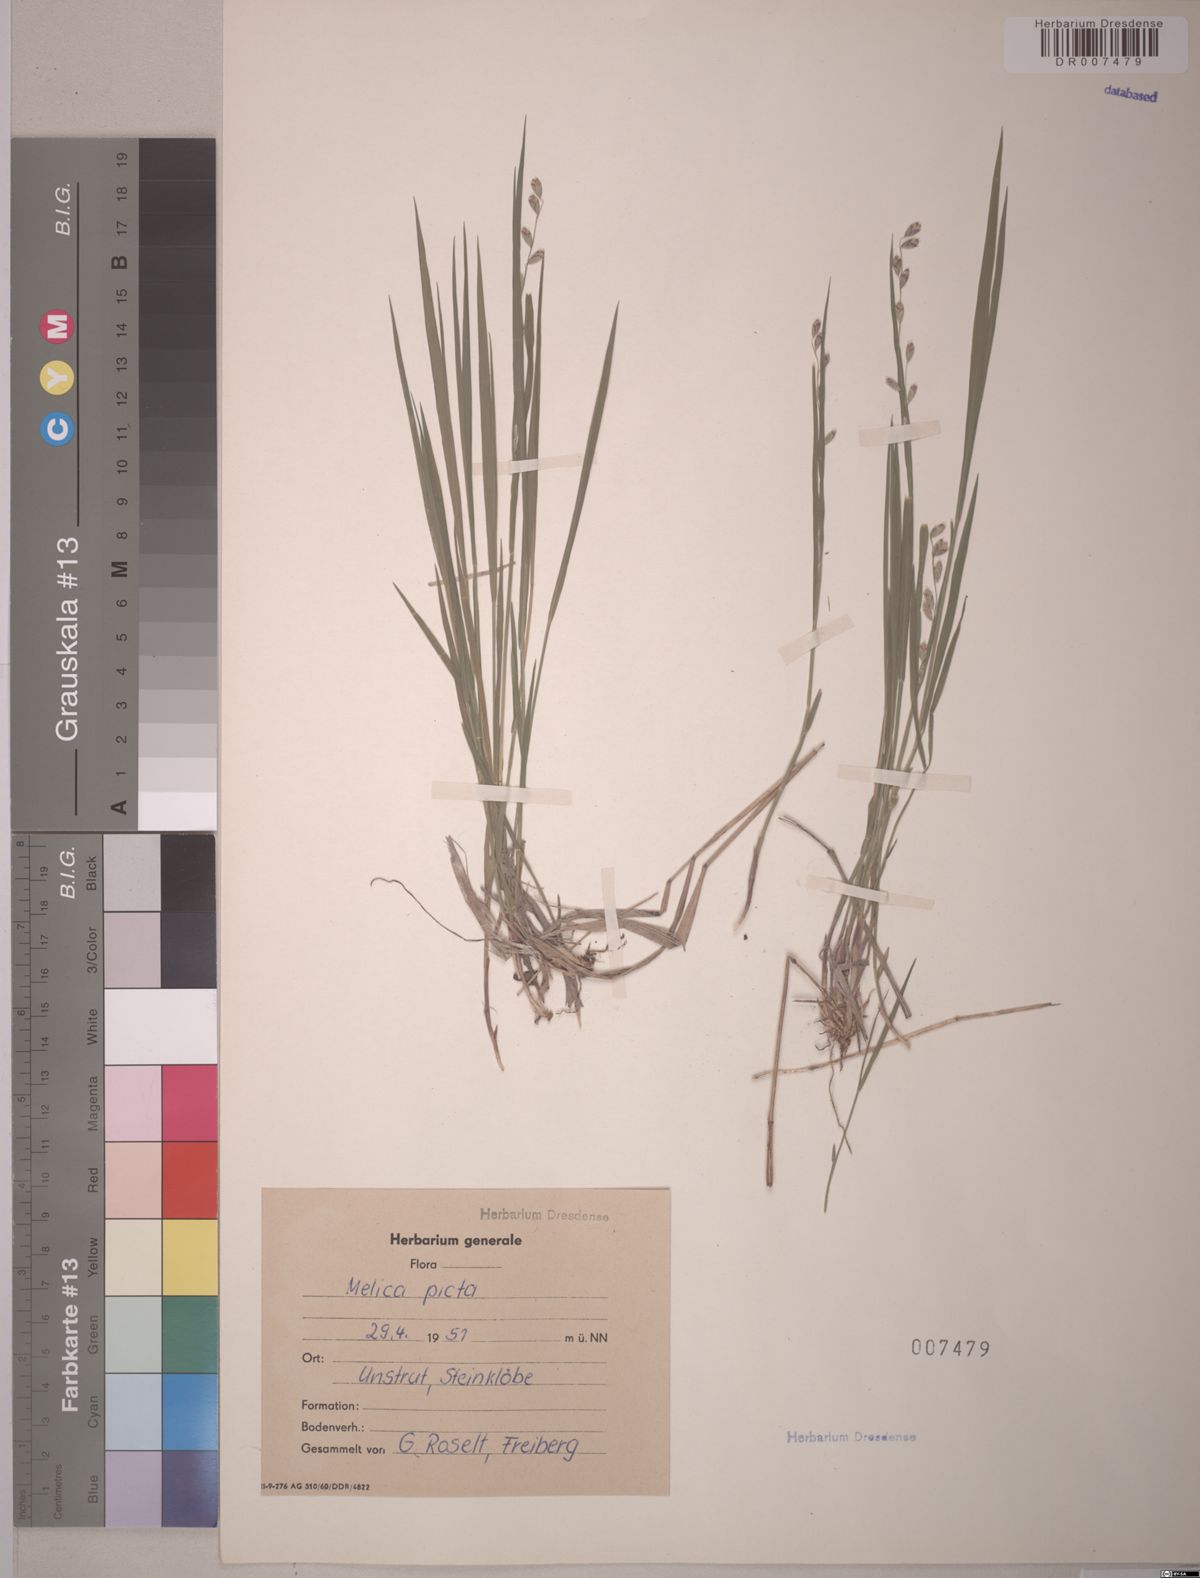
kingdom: Plantae
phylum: Tracheophyta
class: Liliopsida
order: Poales
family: Poaceae
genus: Melica
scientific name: Melica picta
